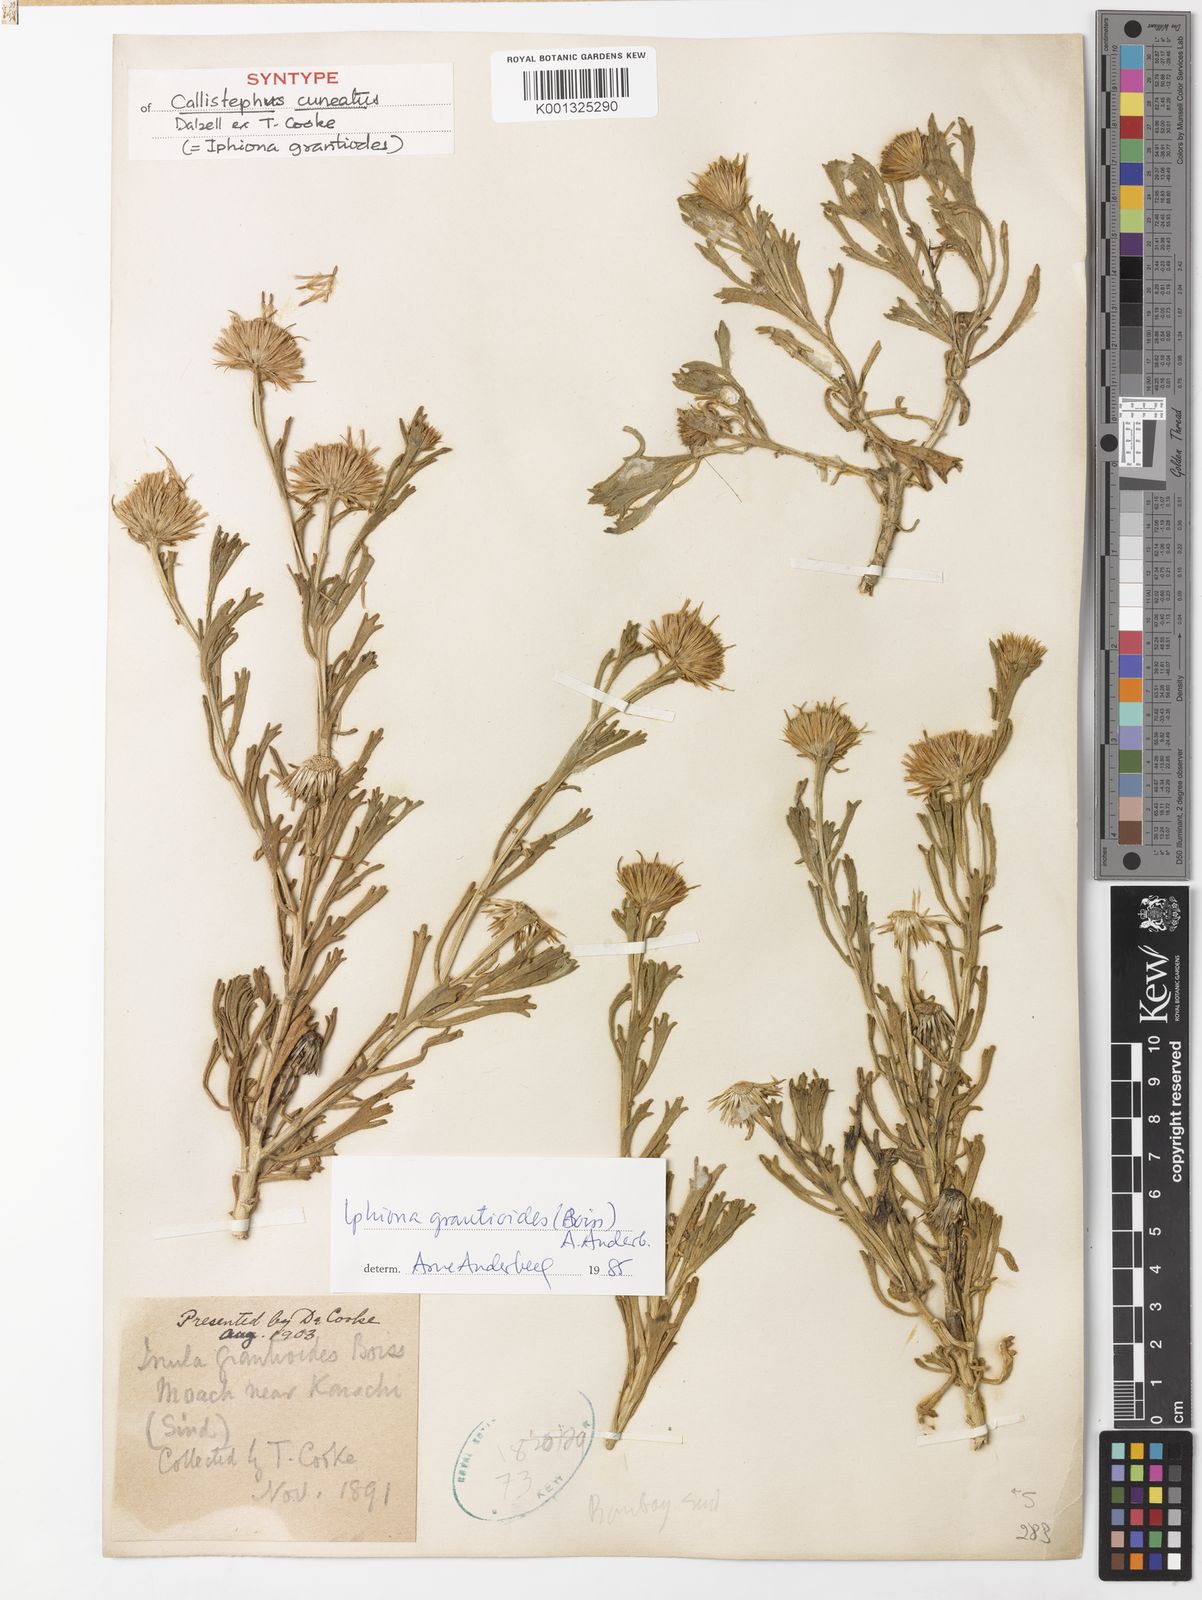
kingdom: Plantae
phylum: Tracheophyta
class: Magnoliopsida
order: Asterales
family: Asteraceae
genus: Iphiona
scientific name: Iphiona grantioides
